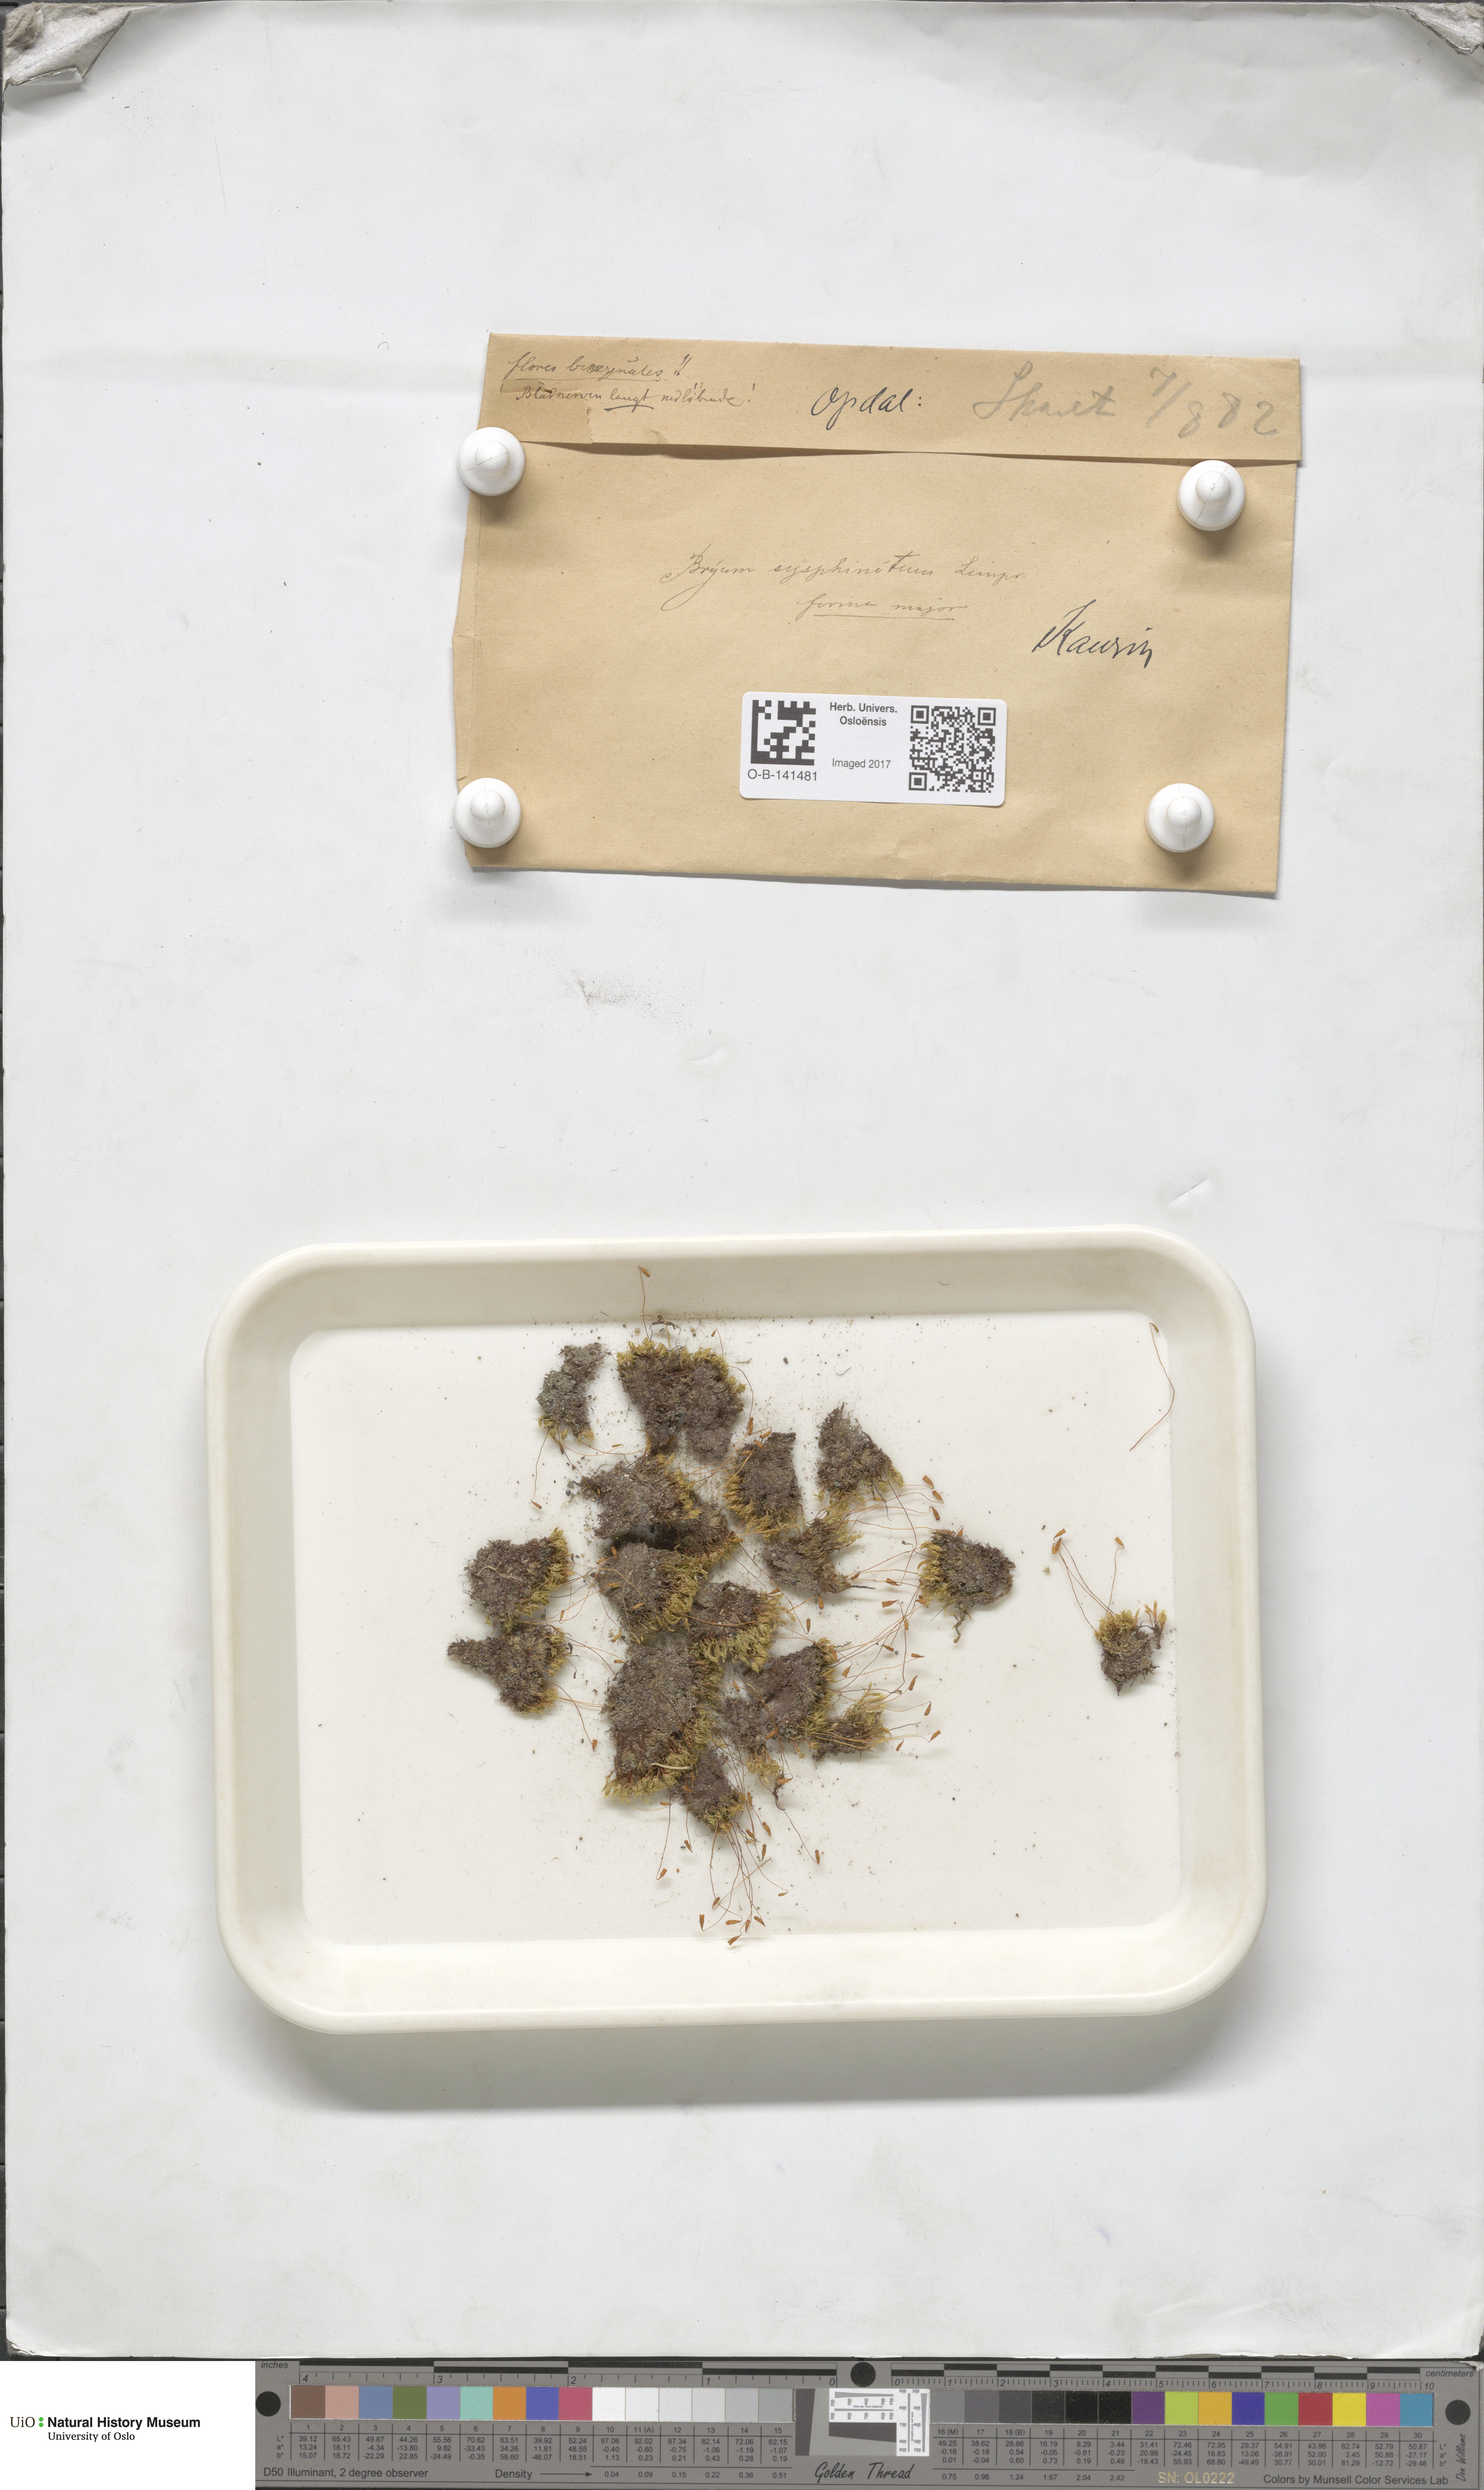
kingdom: Plantae
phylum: Bryophyta
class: Bryopsida
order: Bryales
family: Bryaceae
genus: Ptychostomum
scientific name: Ptychostomum pallescens
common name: Tall-clustered thread-moss
